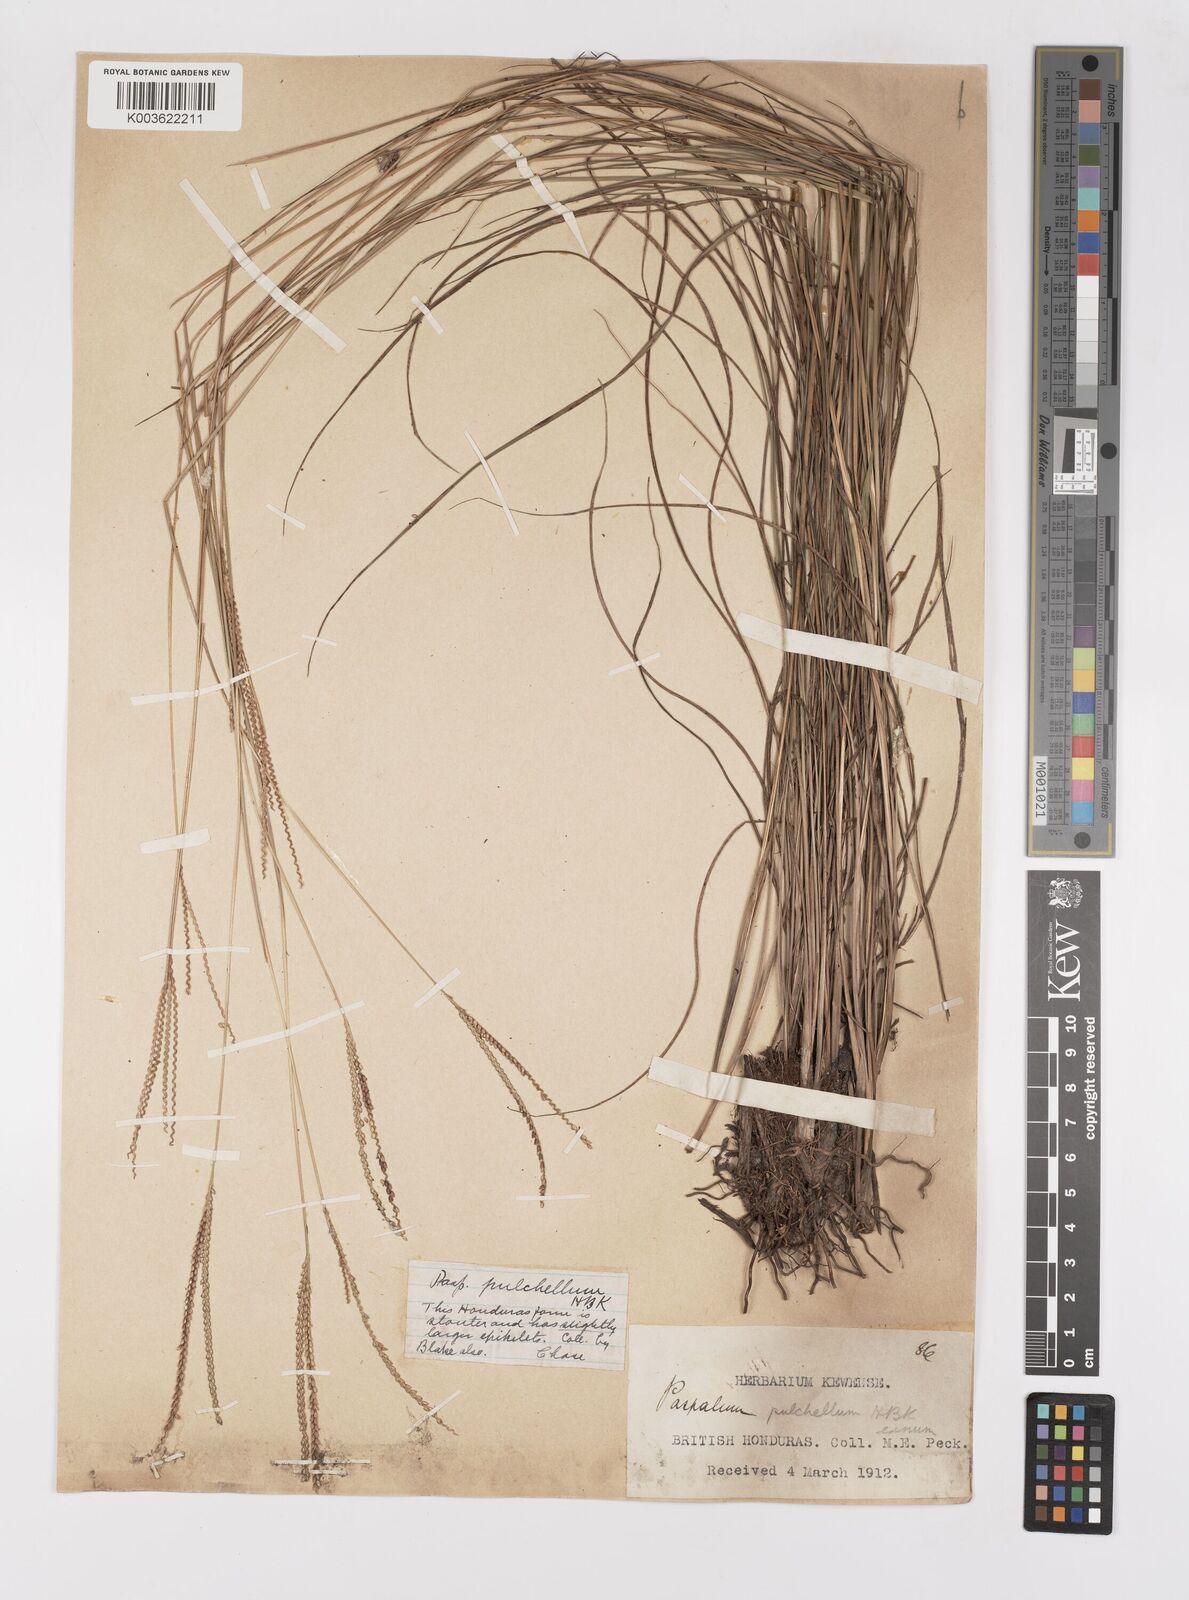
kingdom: Plantae
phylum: Tracheophyta
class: Liliopsida
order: Poales
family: Poaceae
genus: Paspalum
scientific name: Paspalum pulchellum
